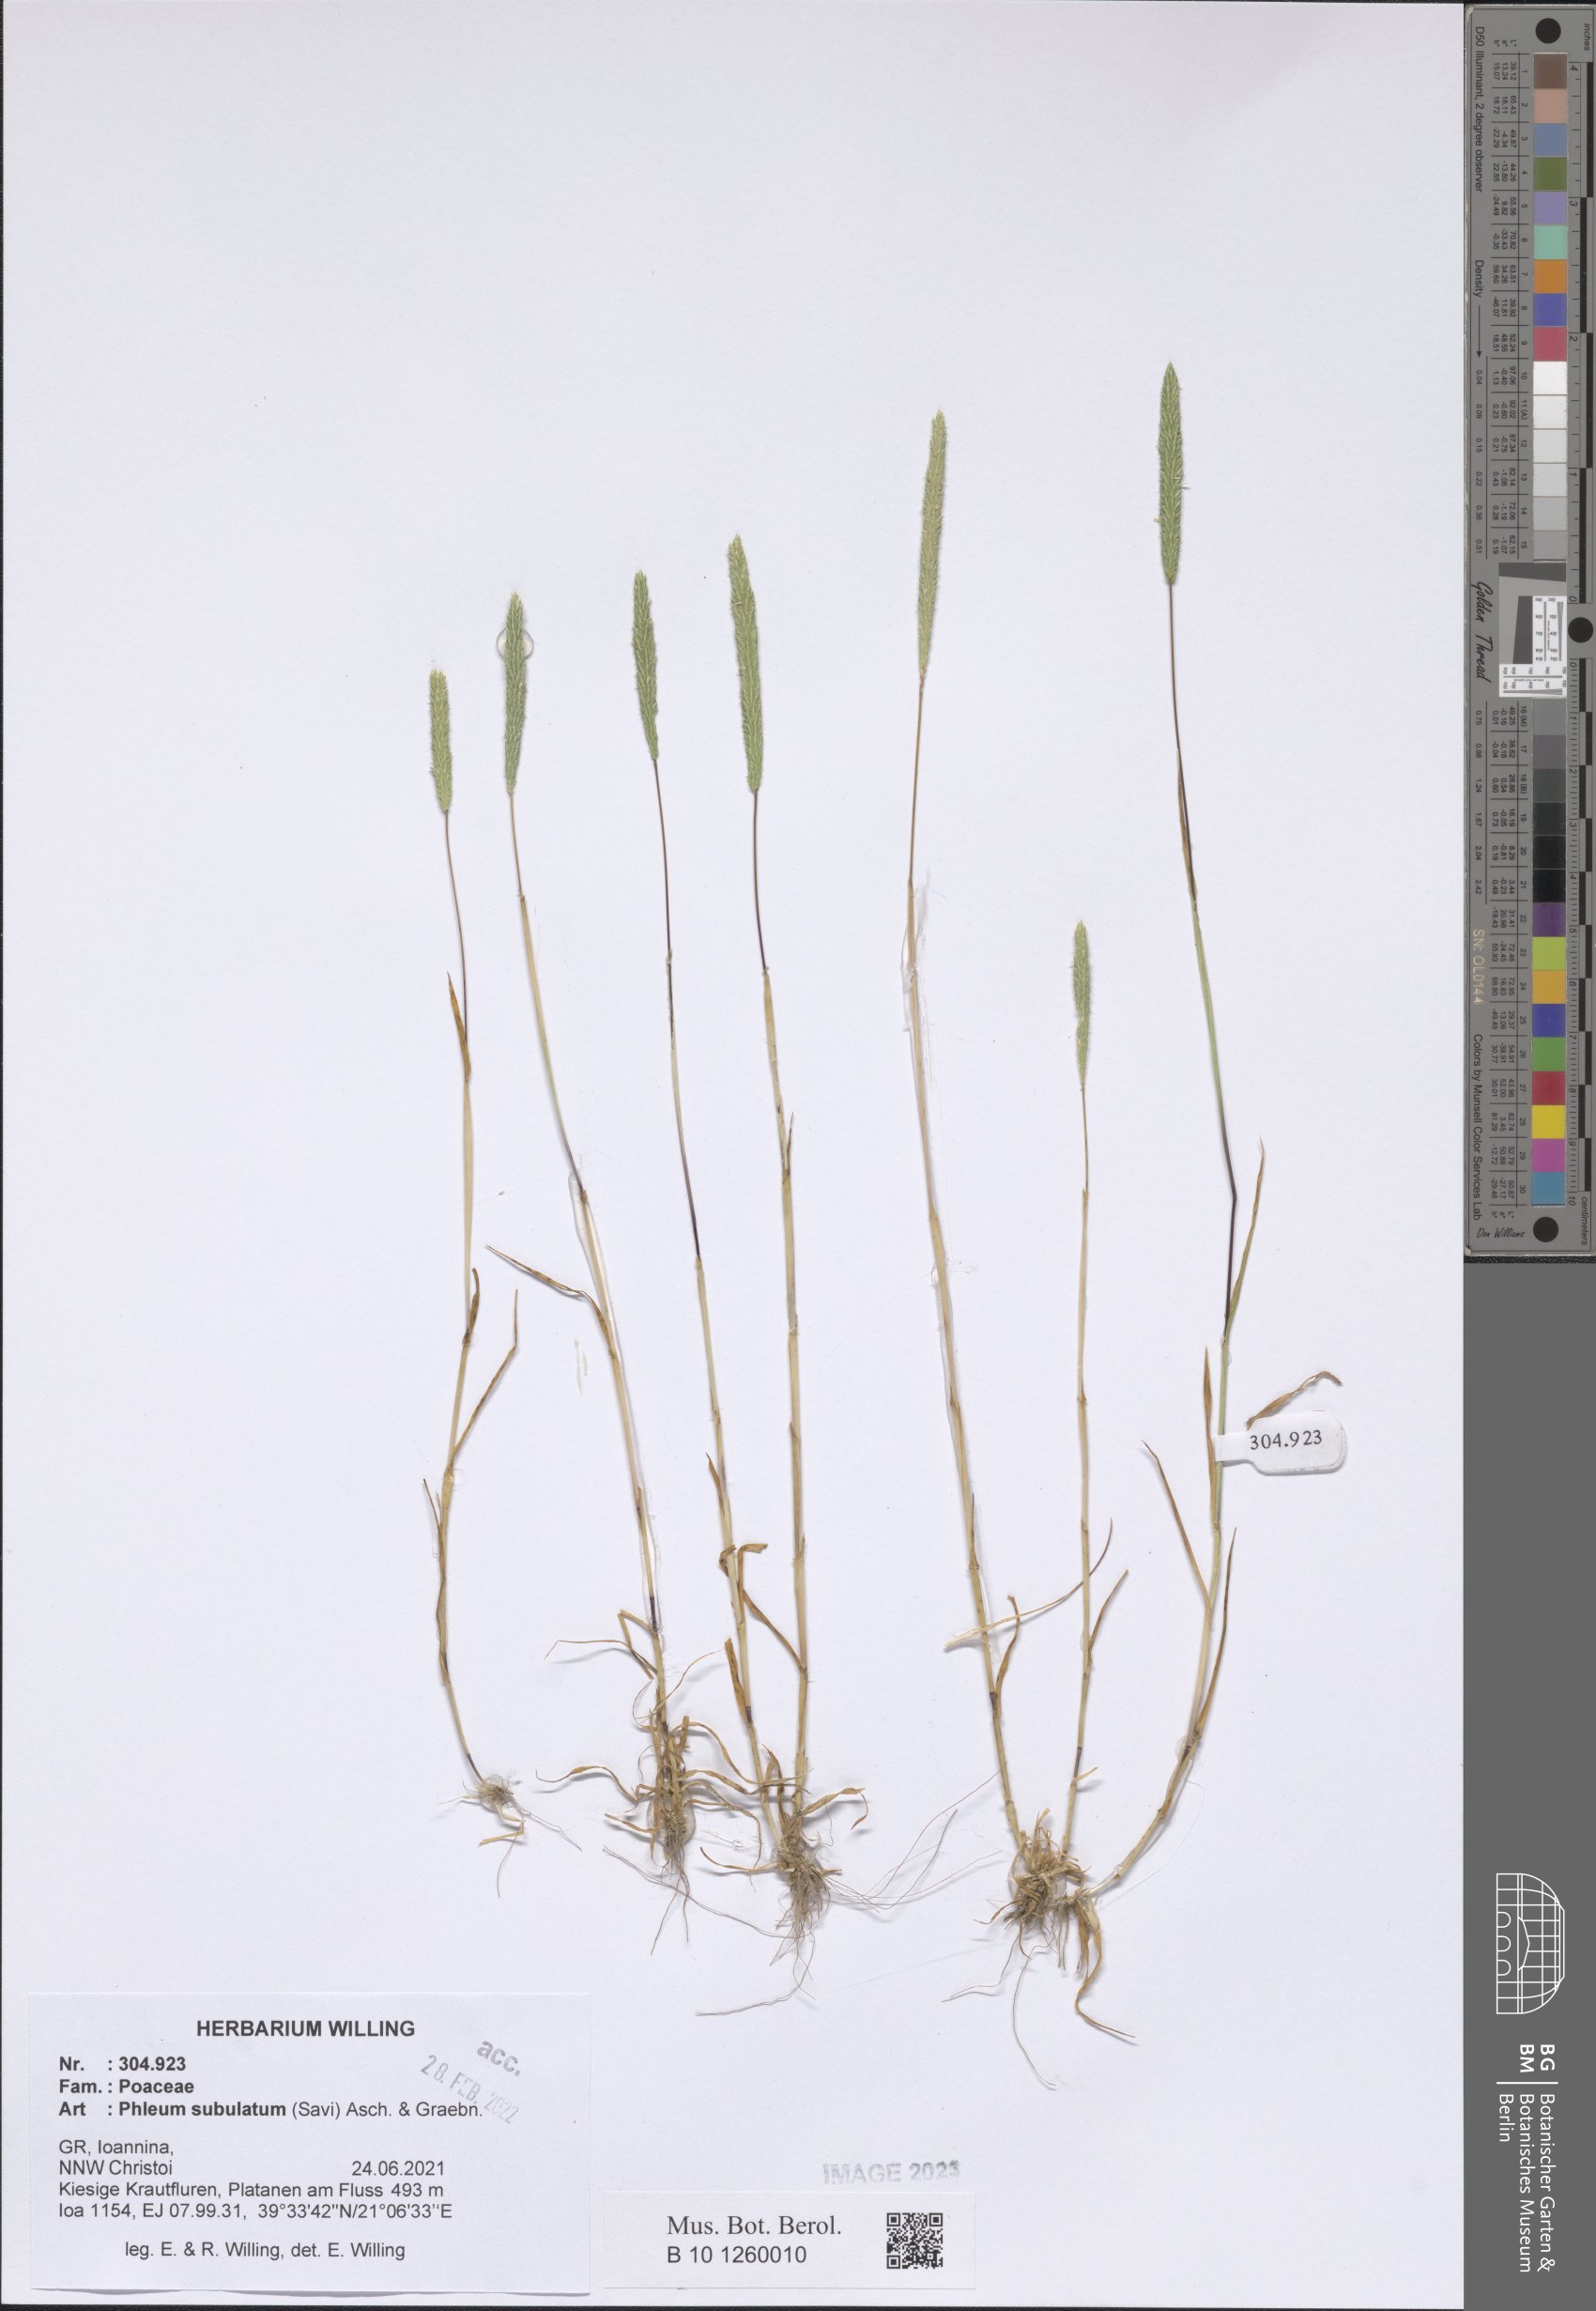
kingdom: Plantae
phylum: Tracheophyta
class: Liliopsida
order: Poales
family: Poaceae
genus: Phleum
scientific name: Phleum subulatum
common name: Italian timothy
